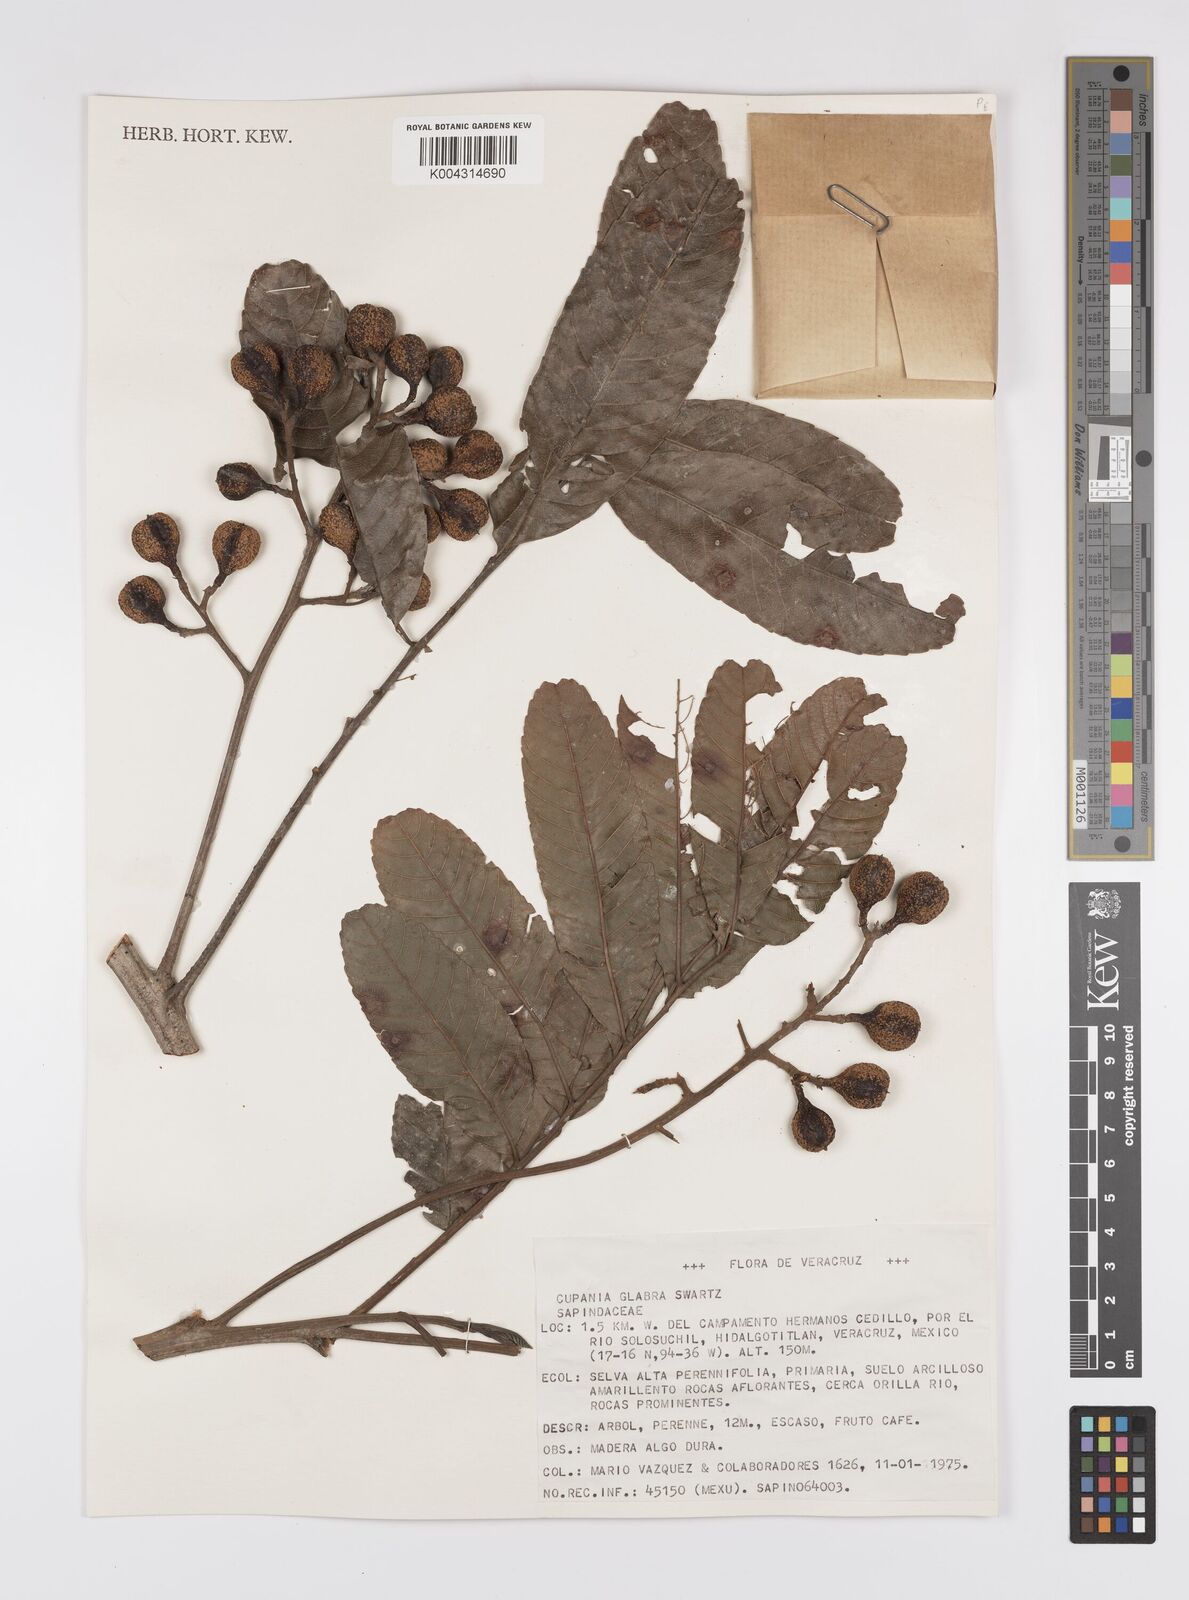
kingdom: Plantae
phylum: Tracheophyta
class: Magnoliopsida
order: Sapindales
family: Sapindaceae
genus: Cupania
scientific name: Cupania
